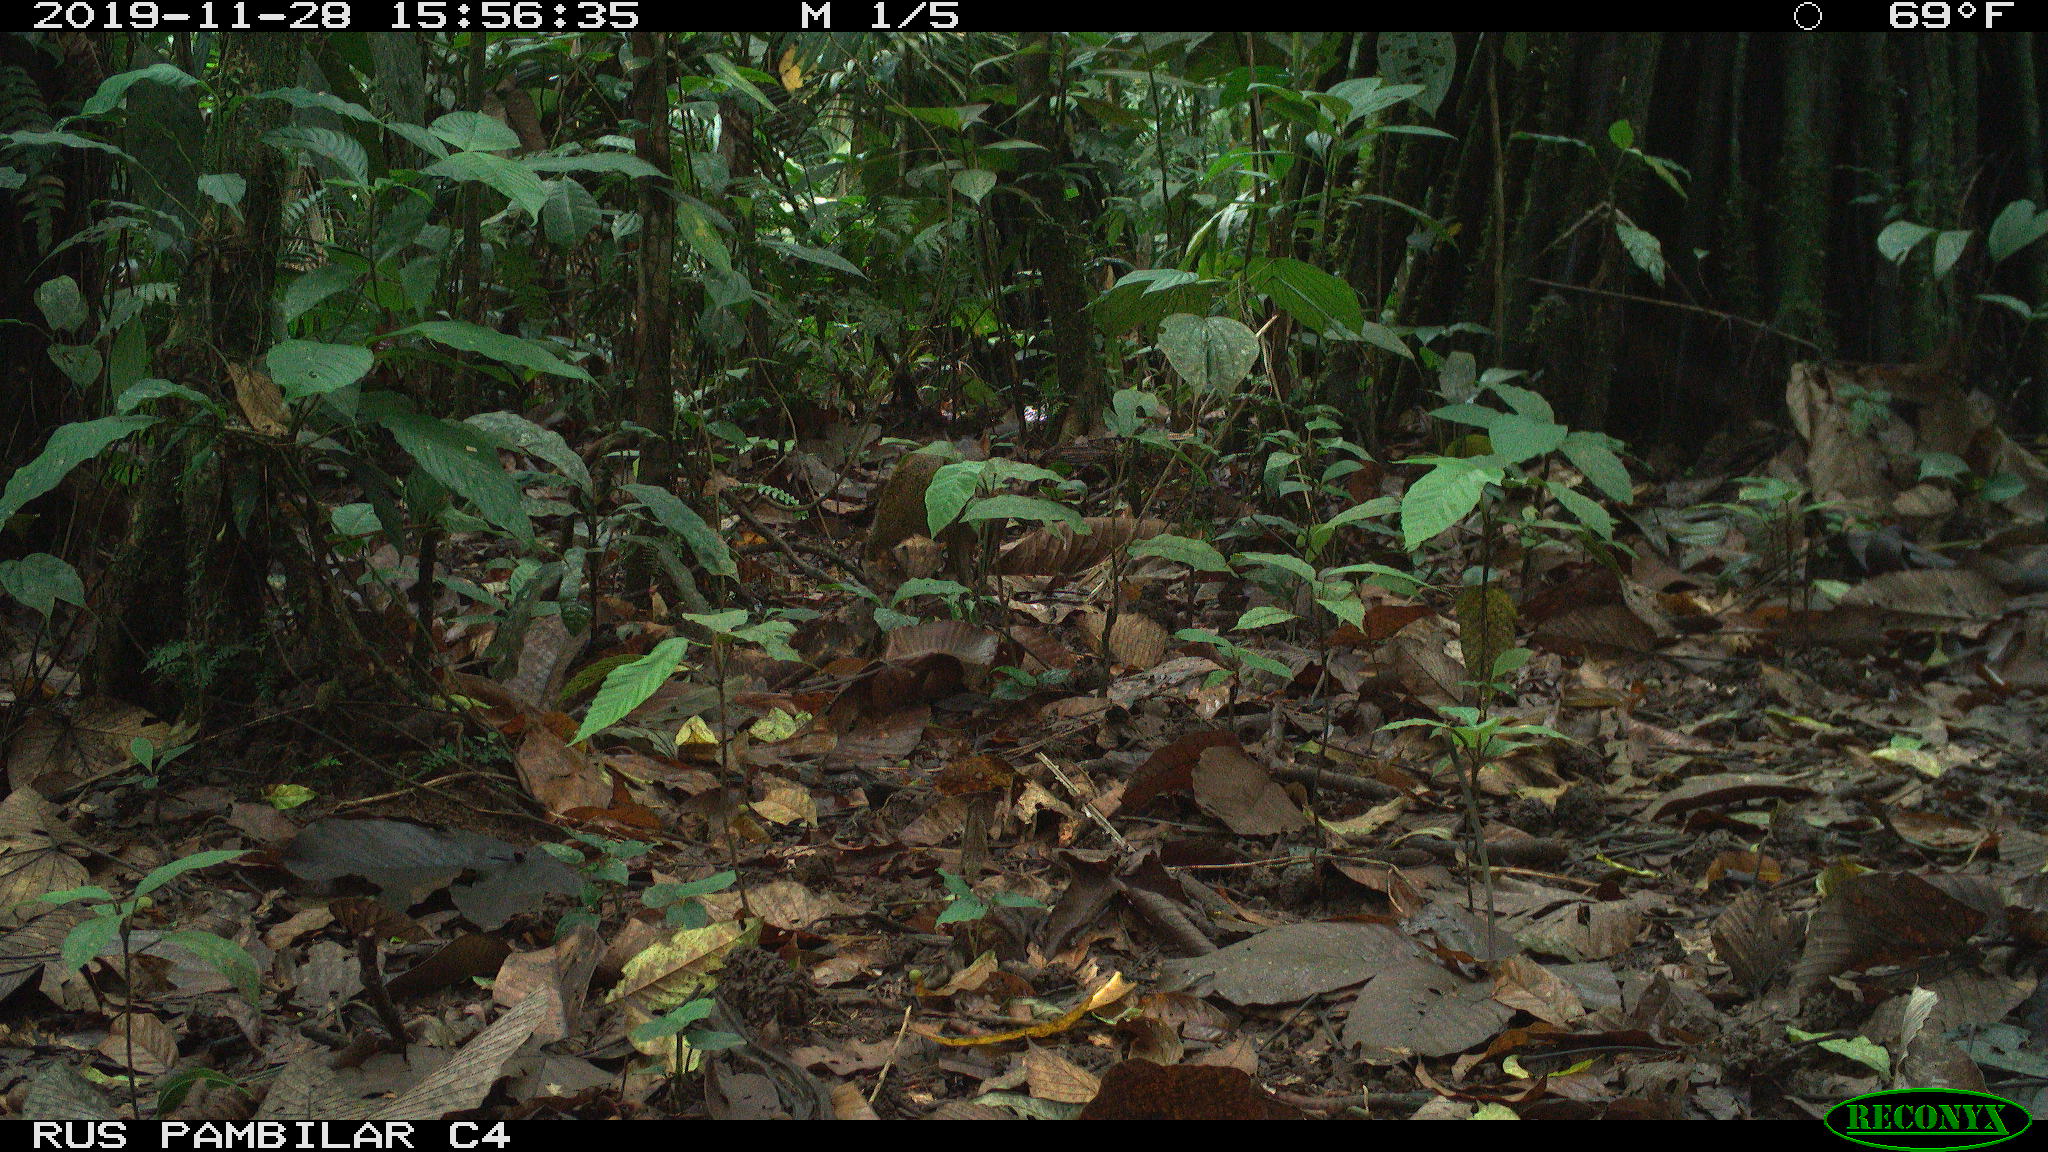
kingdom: Animalia
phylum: Chordata
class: Mammalia
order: Rodentia
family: Dasyproctidae
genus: Dasyprocta
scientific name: Dasyprocta punctata
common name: Central american agouti
